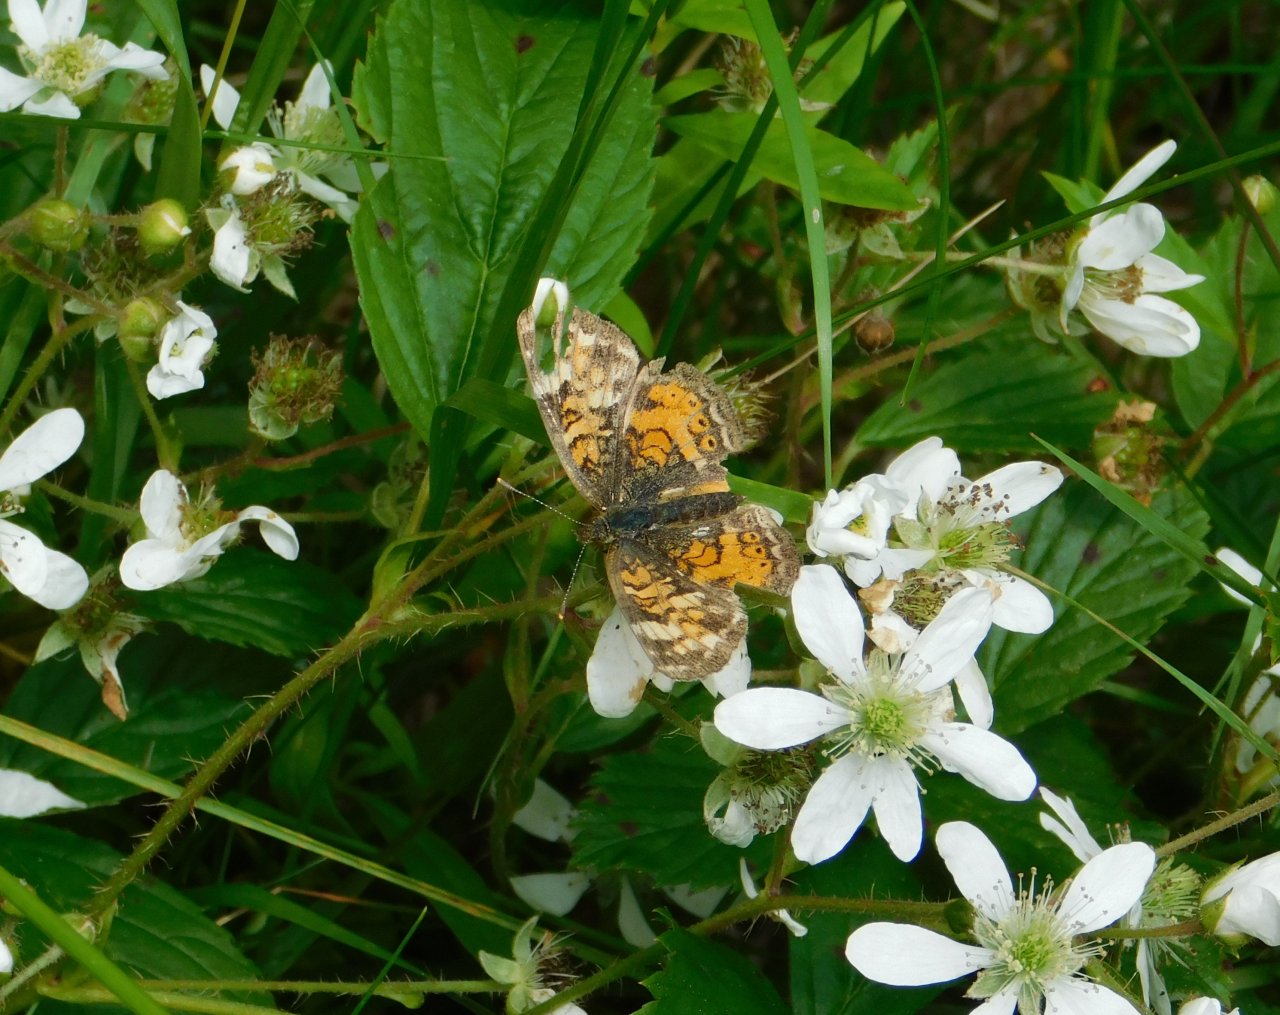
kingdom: Animalia
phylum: Arthropoda
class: Insecta
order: Lepidoptera
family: Nymphalidae
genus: Phyciodes
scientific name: Phyciodes tharos
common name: Northern Crescent
